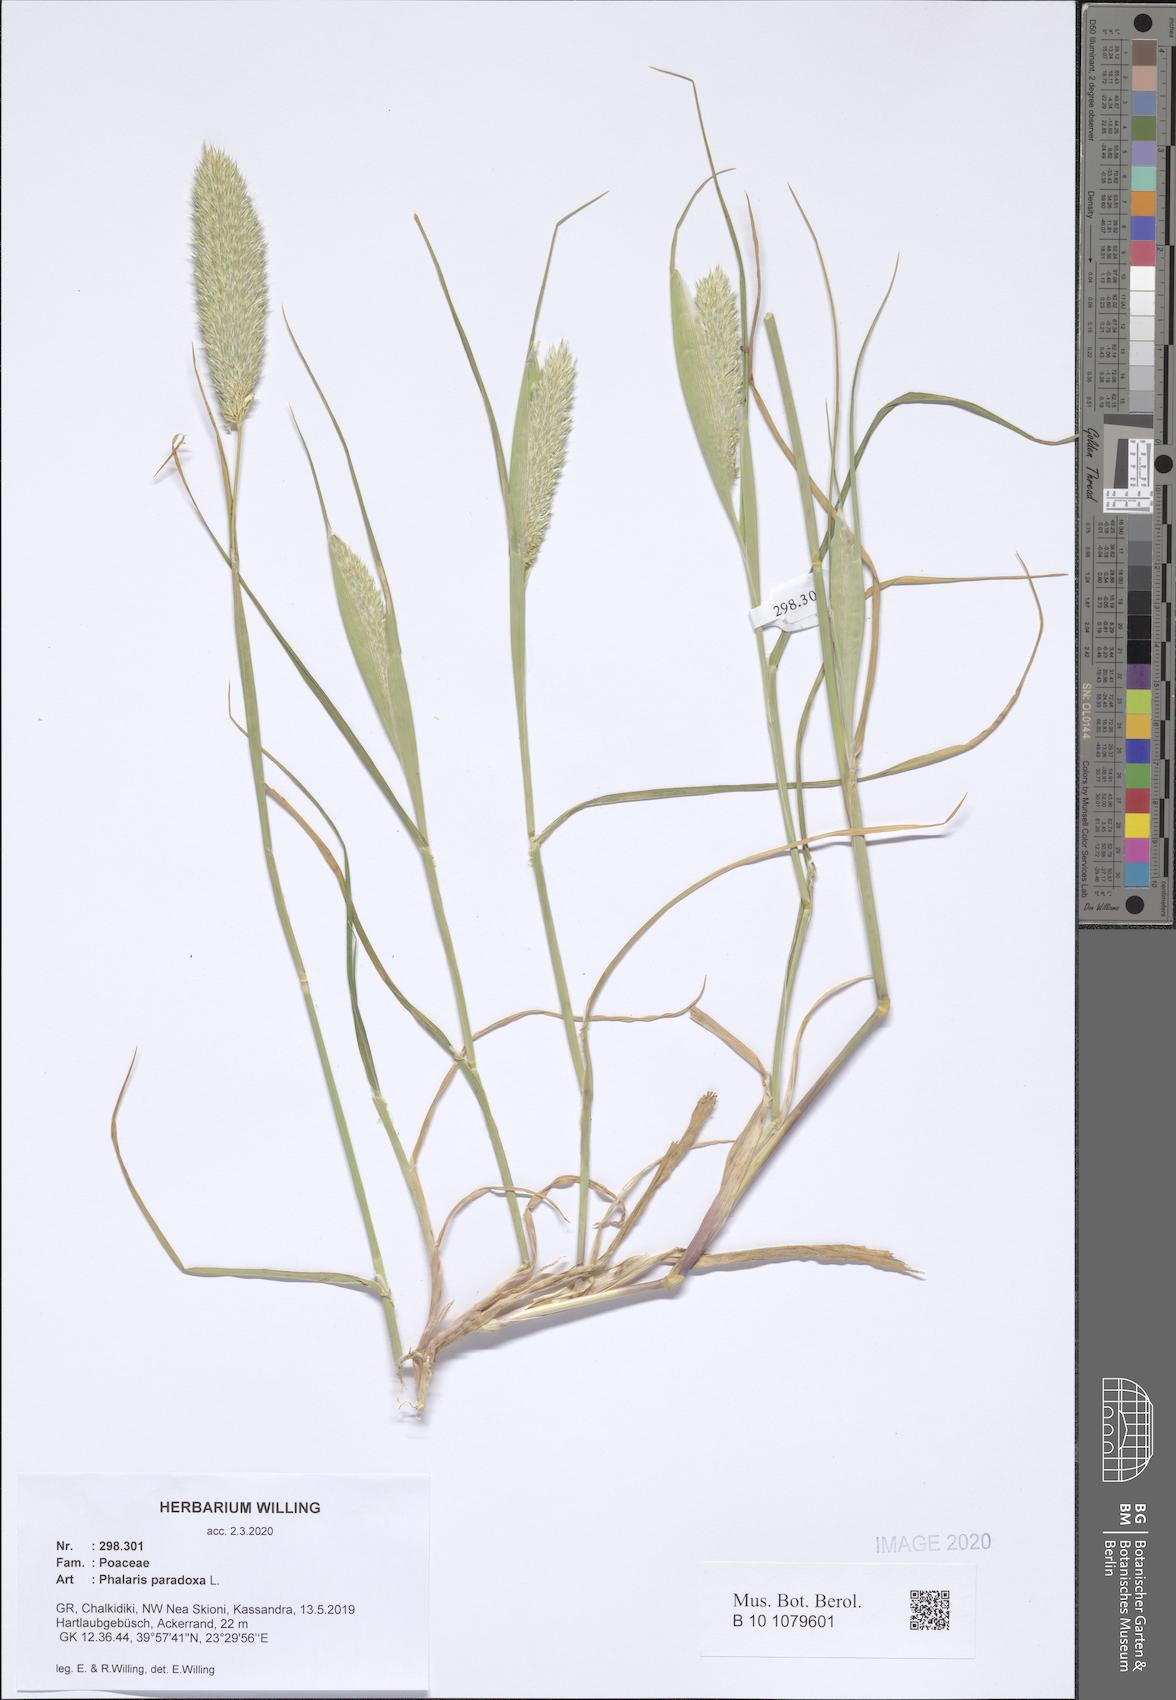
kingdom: Plantae
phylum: Tracheophyta
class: Liliopsida
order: Poales
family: Poaceae
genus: Phalaris
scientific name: Phalaris paradoxa
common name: Awned canary-grass
